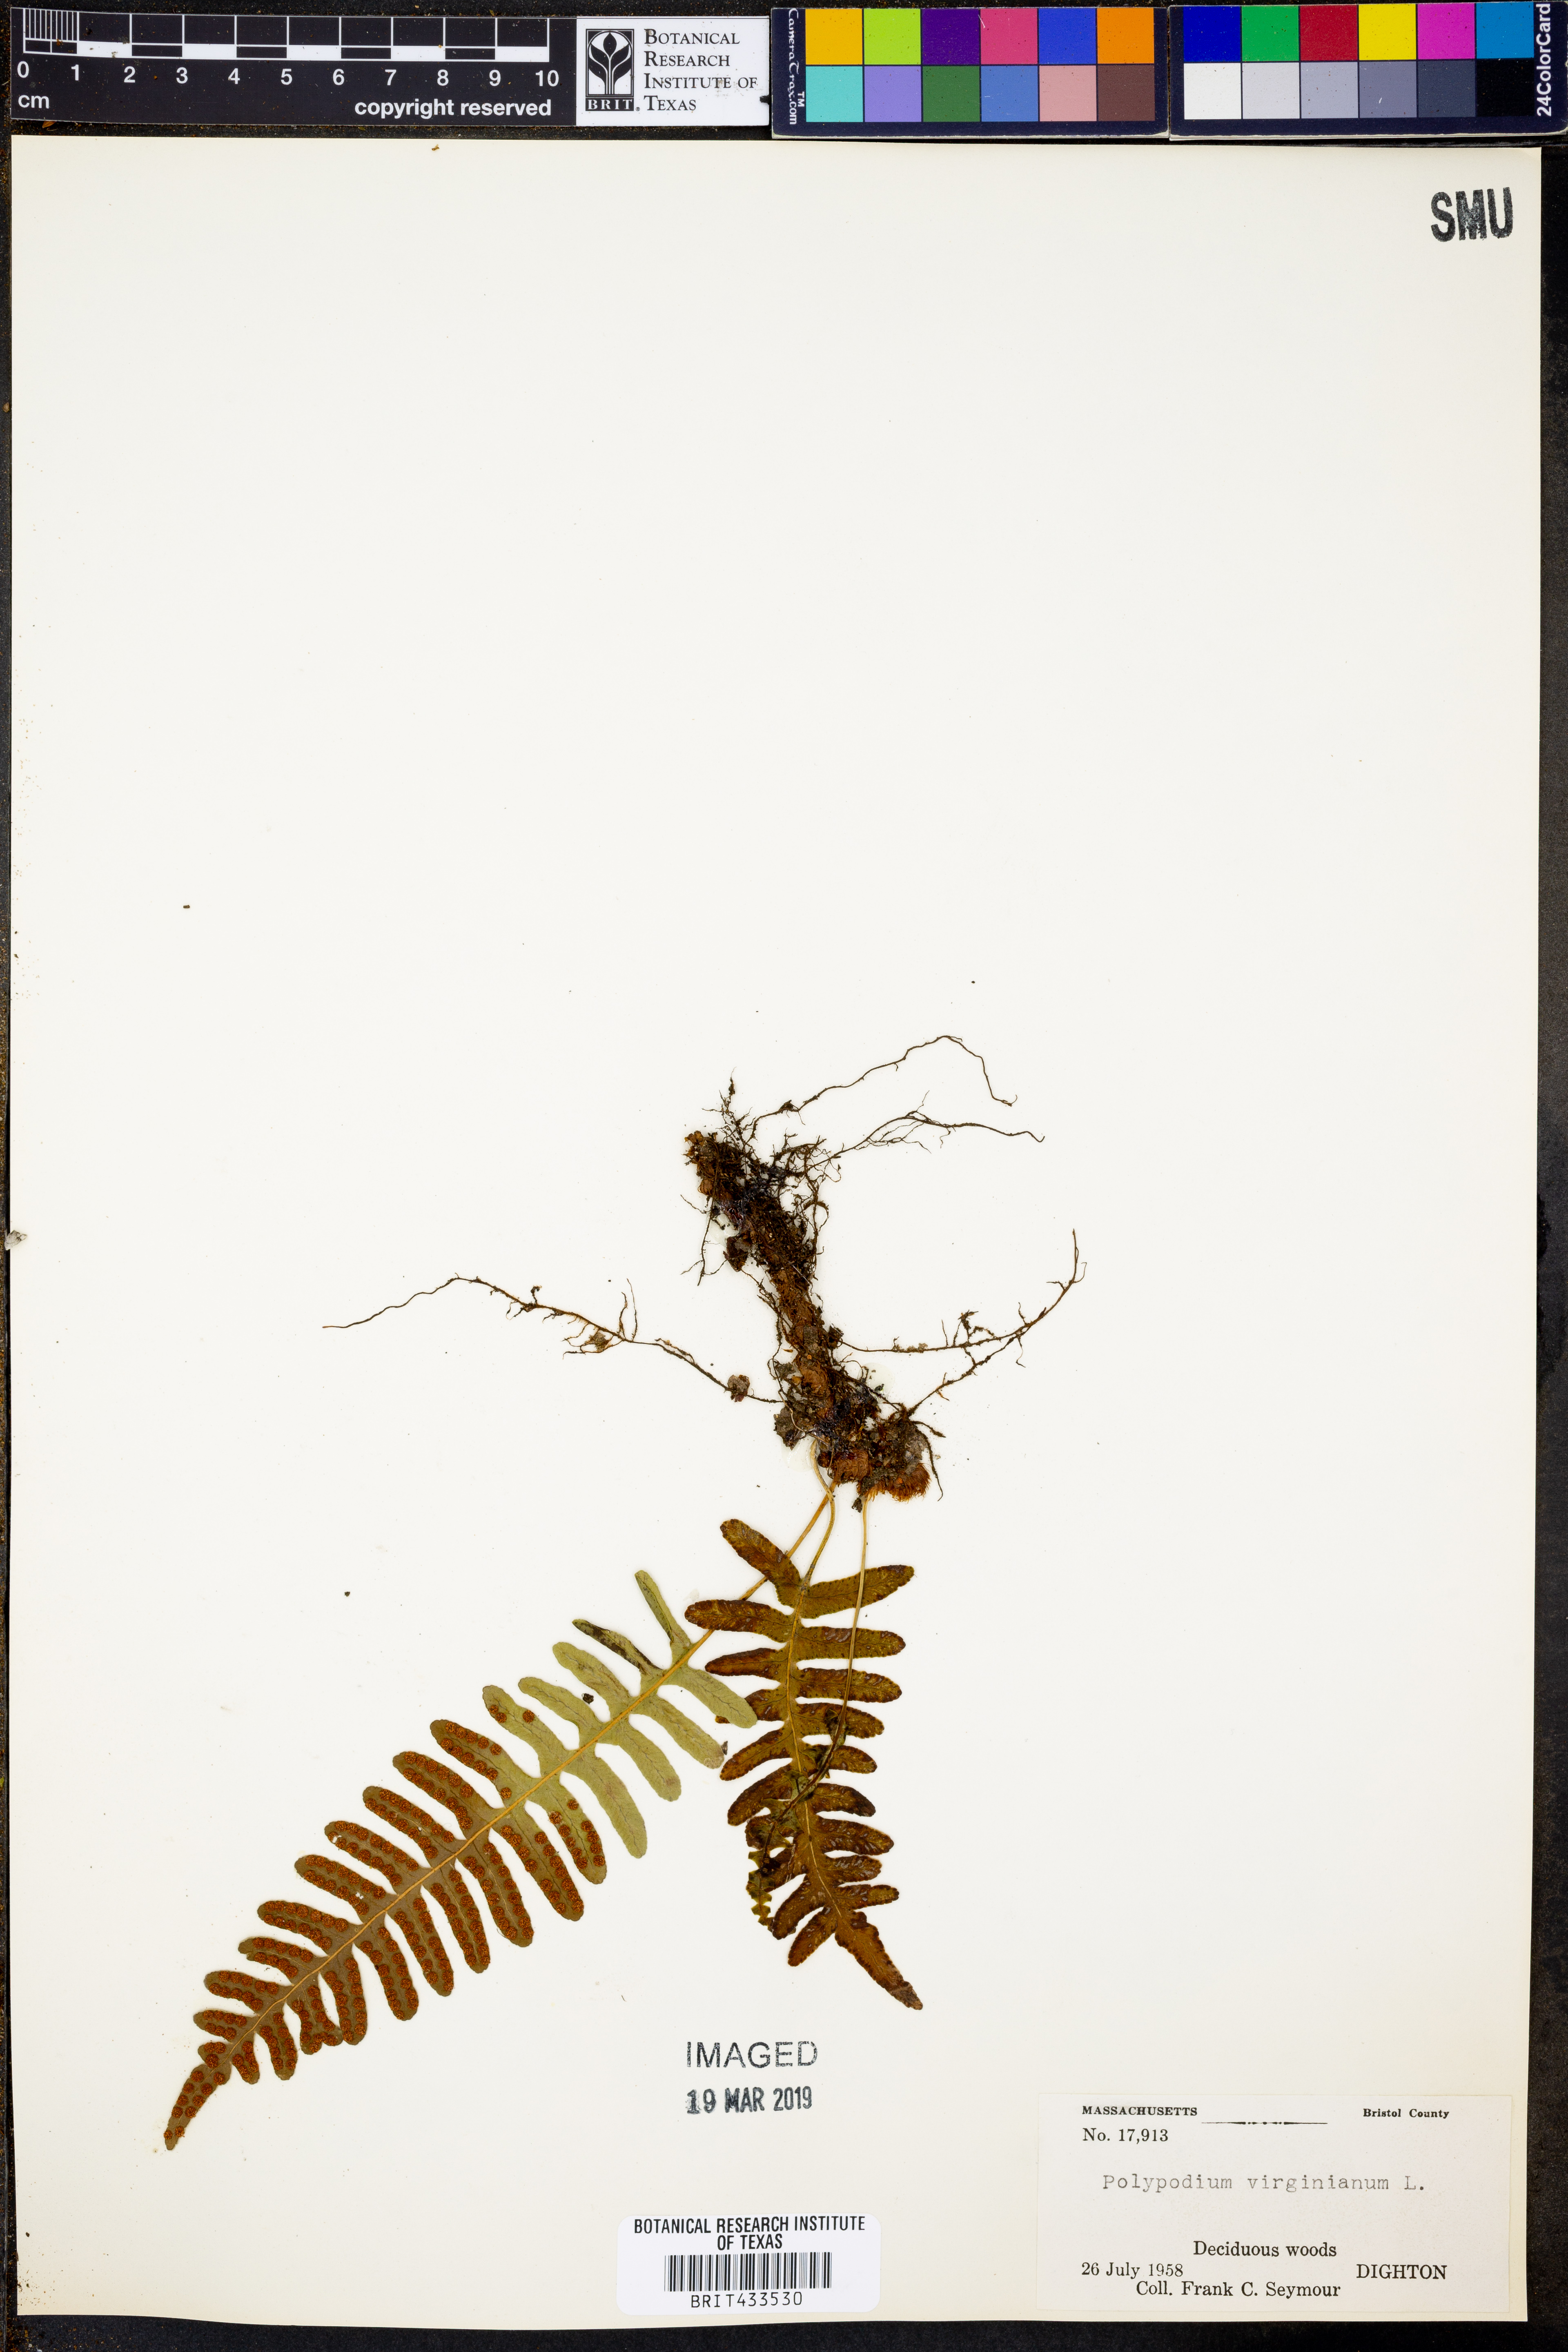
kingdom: Plantae
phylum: Tracheophyta
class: Polypodiopsida
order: Polypodiales
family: Polypodiaceae
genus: Polypodium
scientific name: Polypodium virginianum
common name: American wall fern
